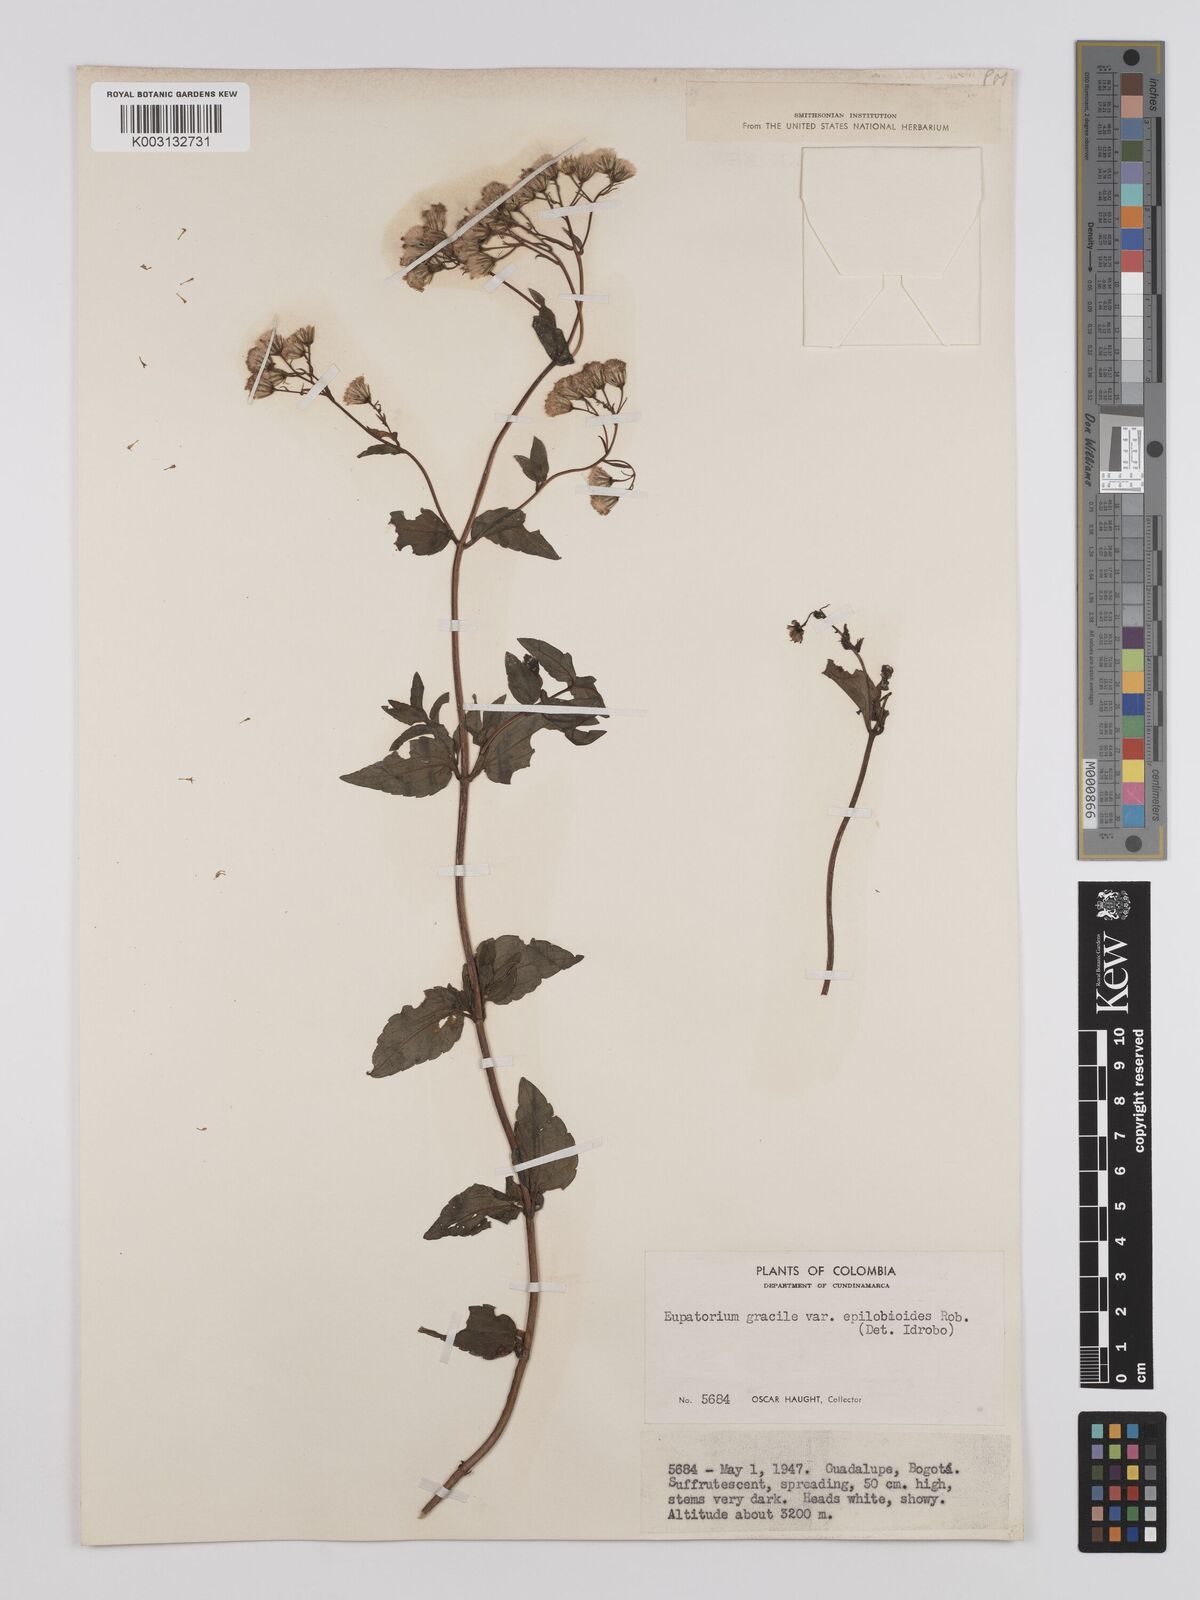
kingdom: Plantae
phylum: Tracheophyta
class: Magnoliopsida
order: Asterales
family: Asteraceae
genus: Ageratina
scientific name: Ageratina
